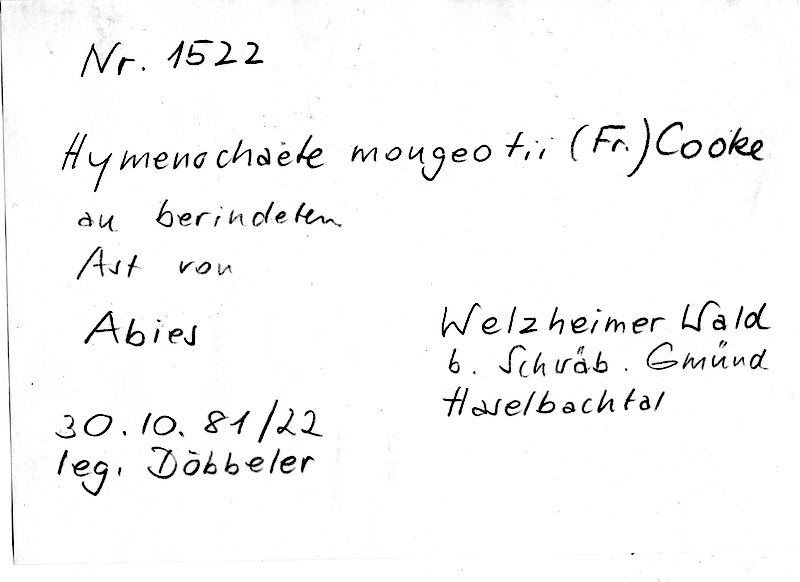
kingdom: Plantae
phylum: Tracheophyta
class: Pinopsida
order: Pinales
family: Pinaceae
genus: Abies
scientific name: Abies
